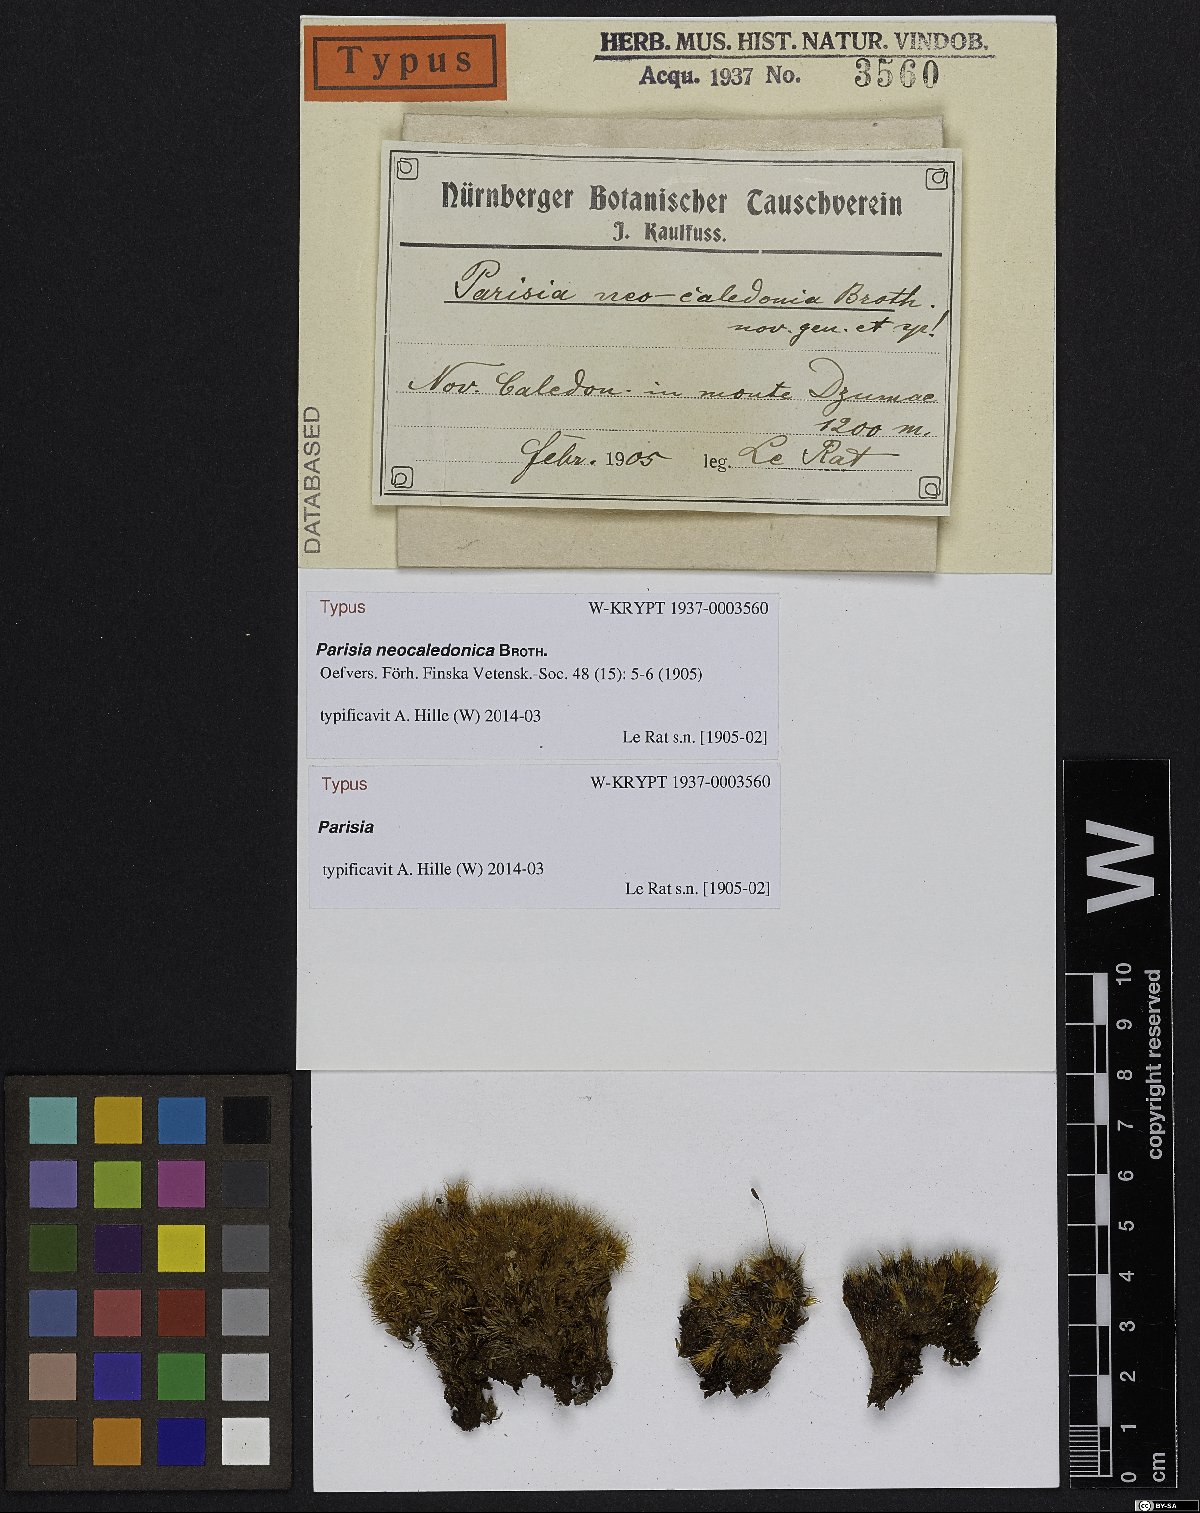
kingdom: Plantae
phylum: Bryophyta
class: Bryopsida
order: Dicranales
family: Dicranaceae
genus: Parisia
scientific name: Parisia neocaledonica
